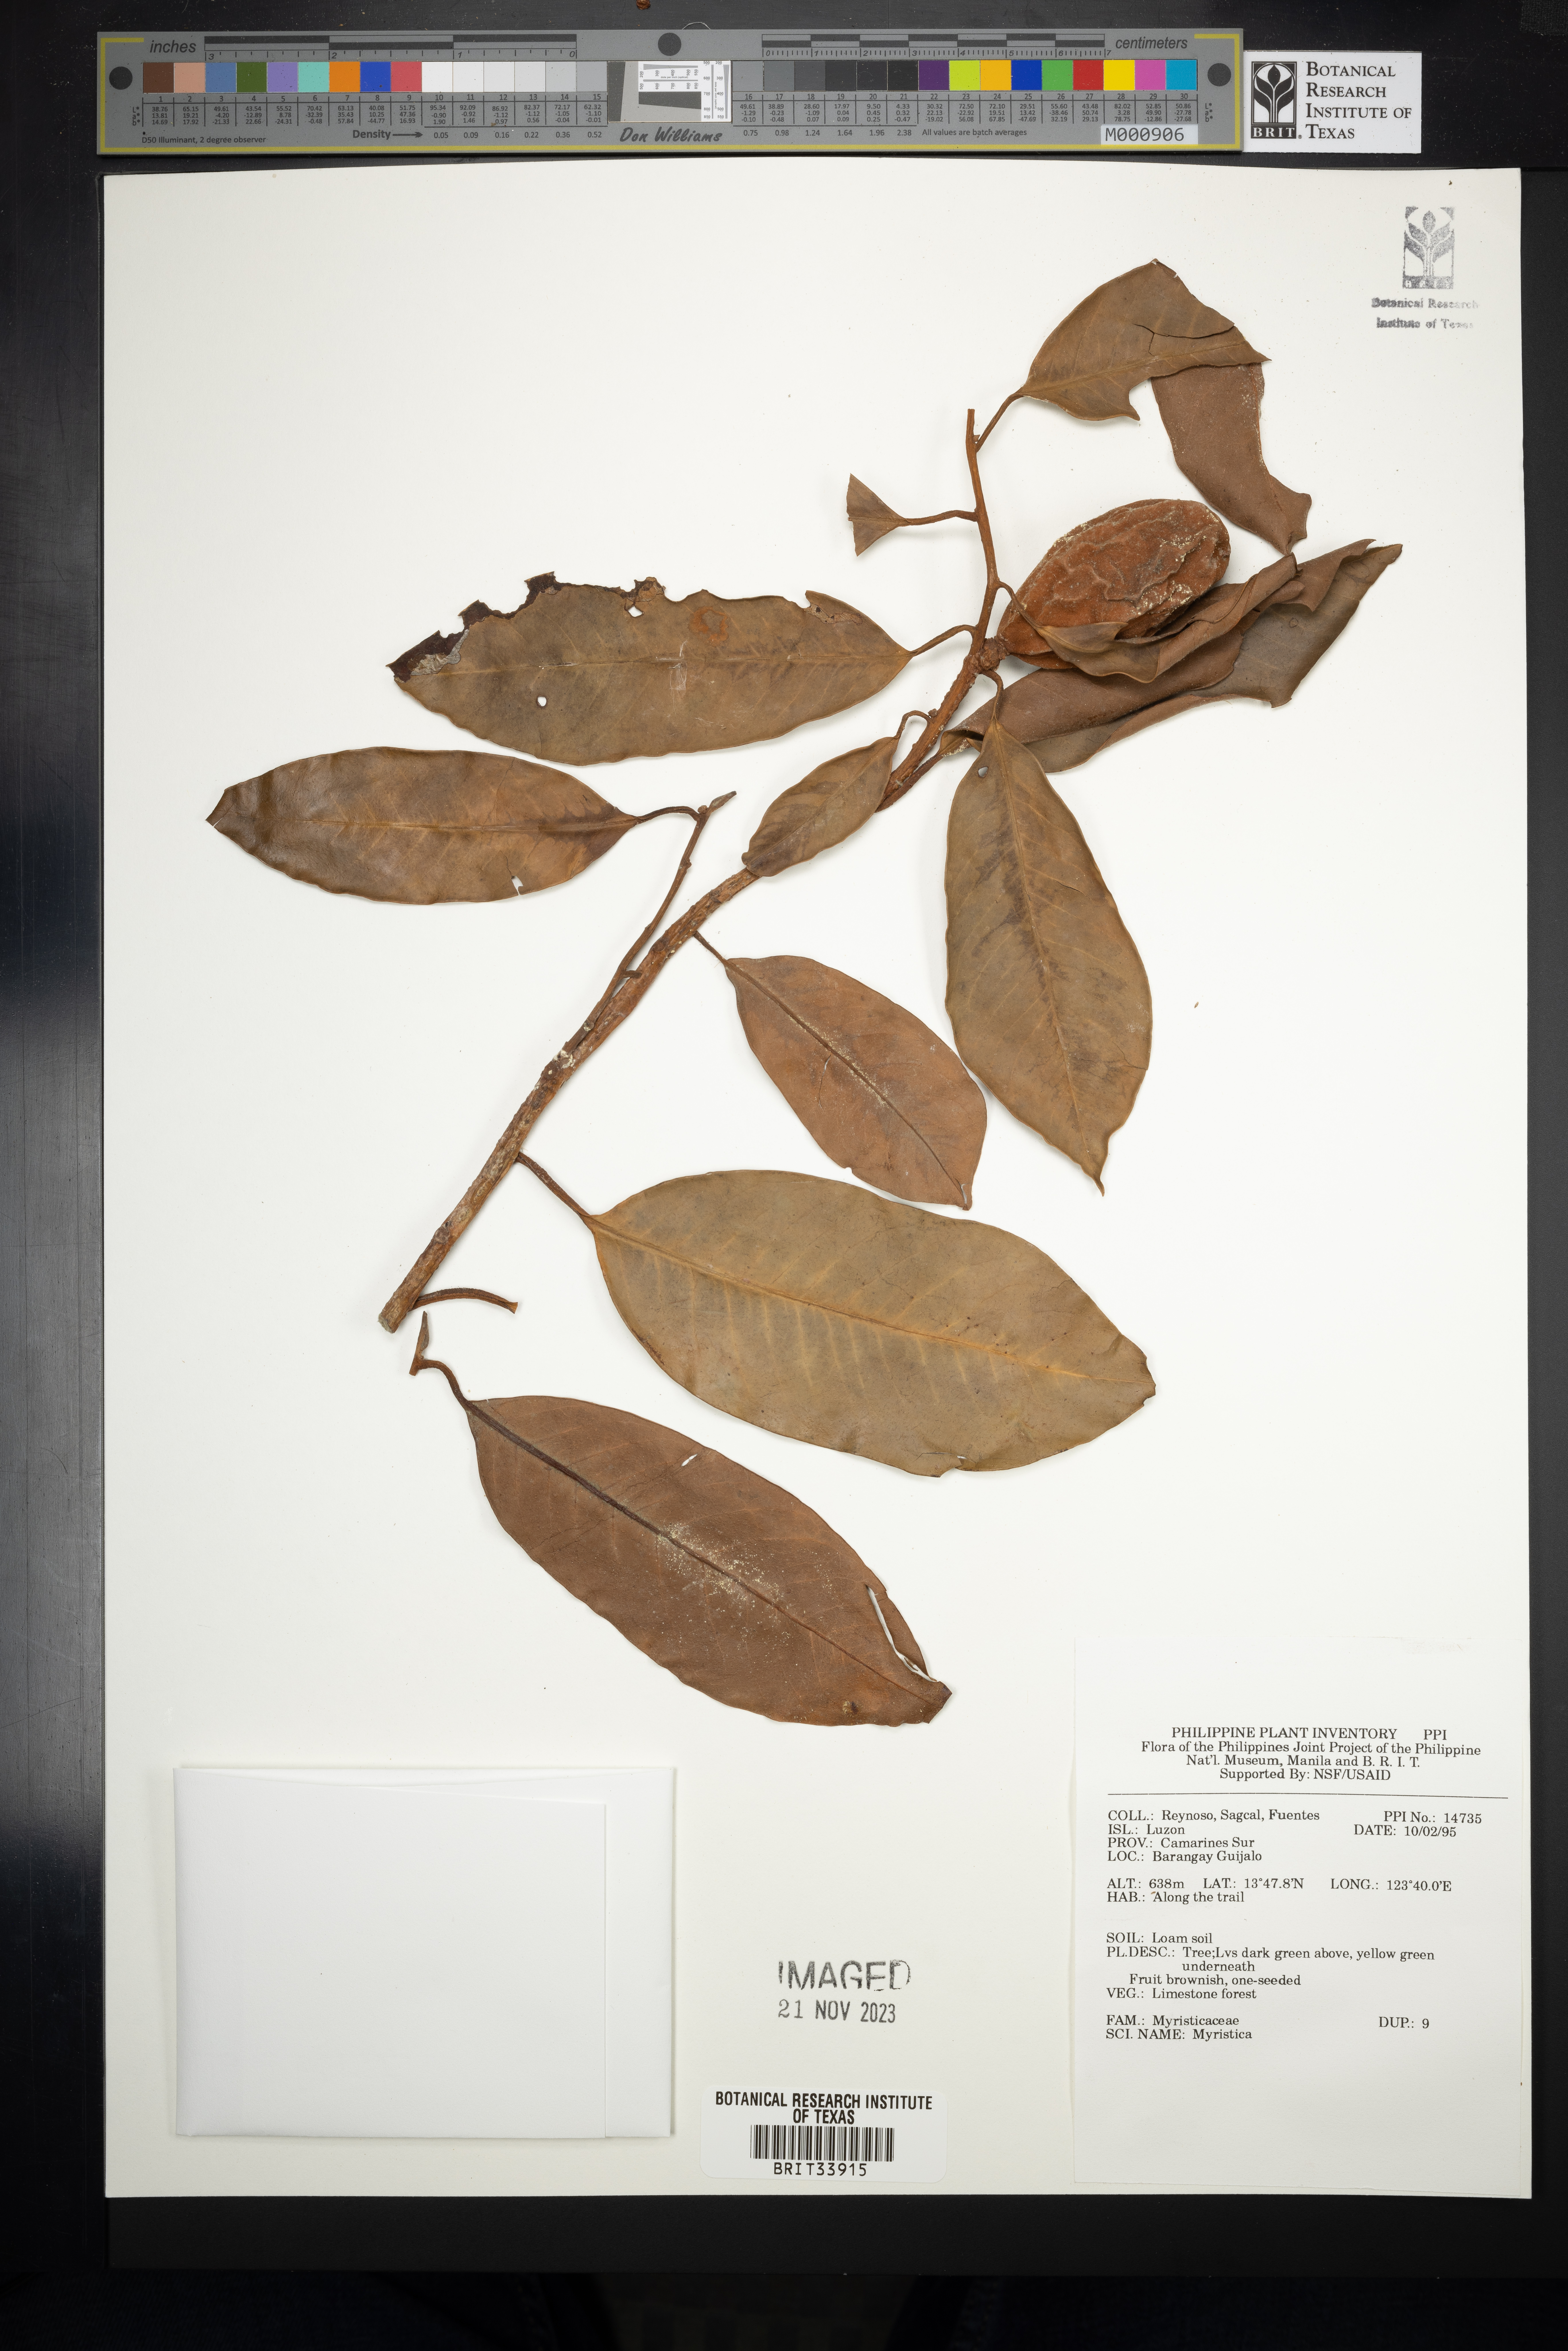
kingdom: Plantae
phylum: Tracheophyta
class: Magnoliopsida
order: Magnoliales
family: Myristicaceae
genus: Myristica
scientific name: Myristica
